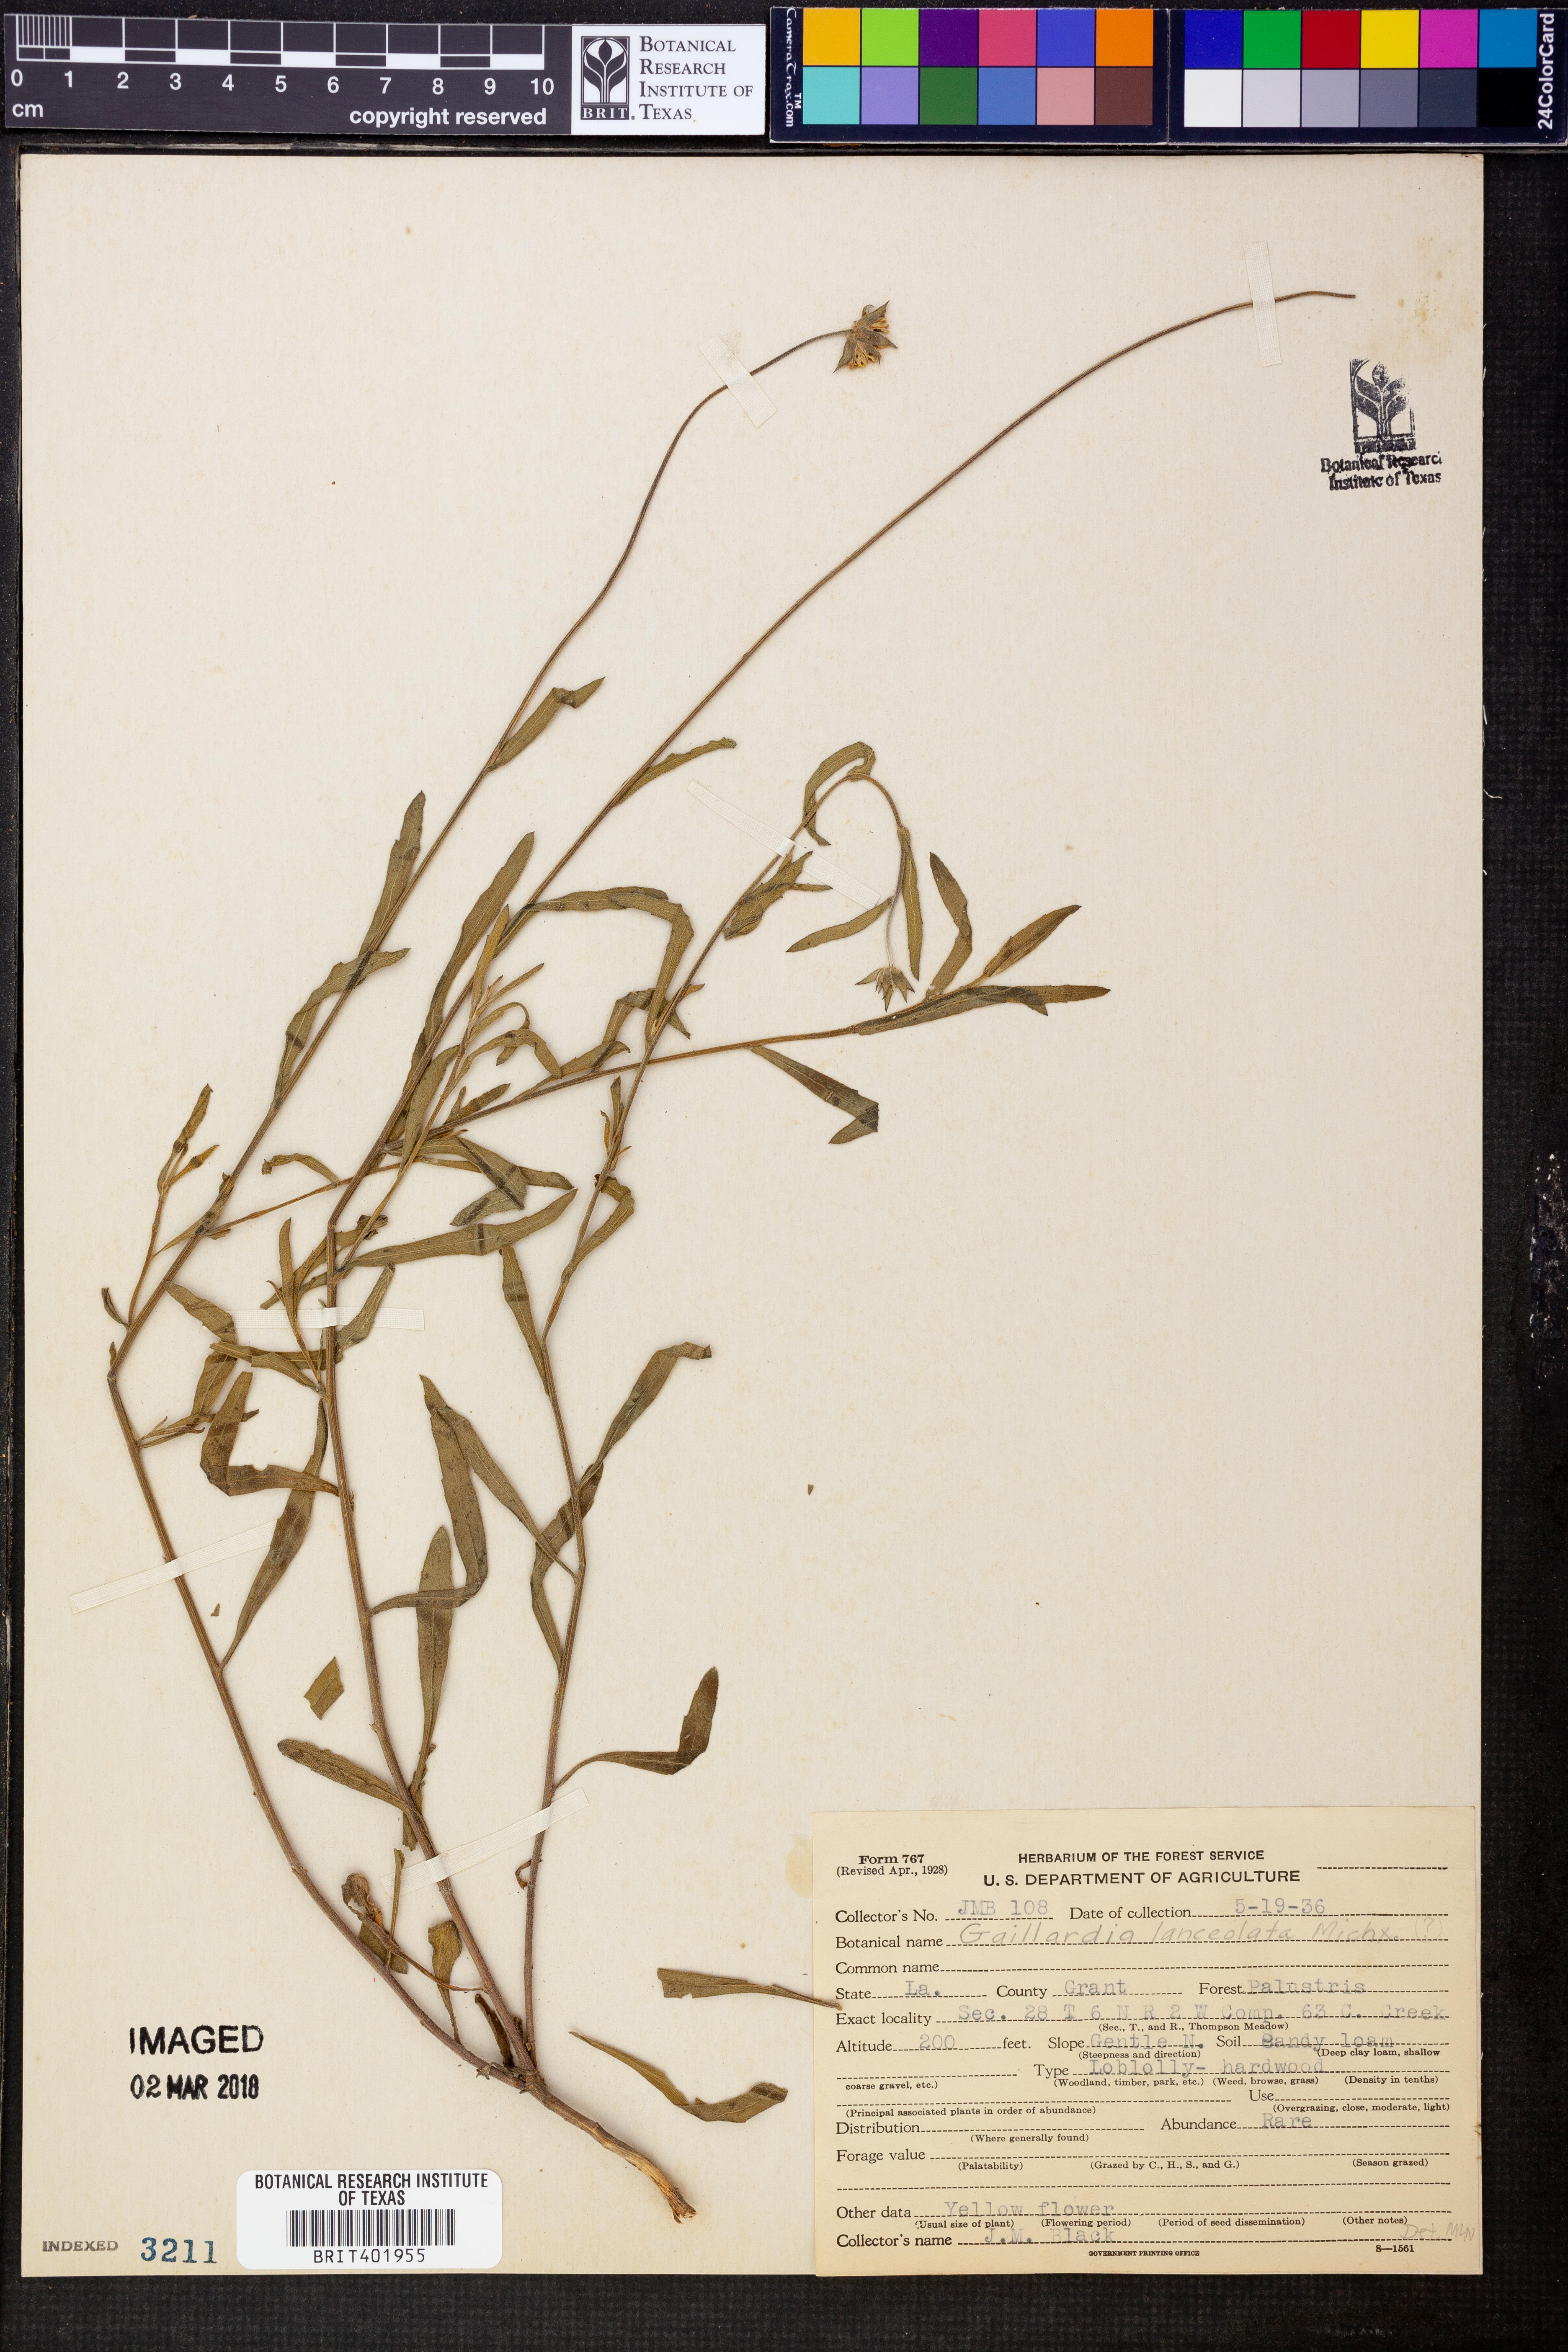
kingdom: Plantae
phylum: Tracheophyta
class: Magnoliopsida
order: Asterales
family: Asteraceae
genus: Gaillardia
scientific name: Gaillardia aestivalis
